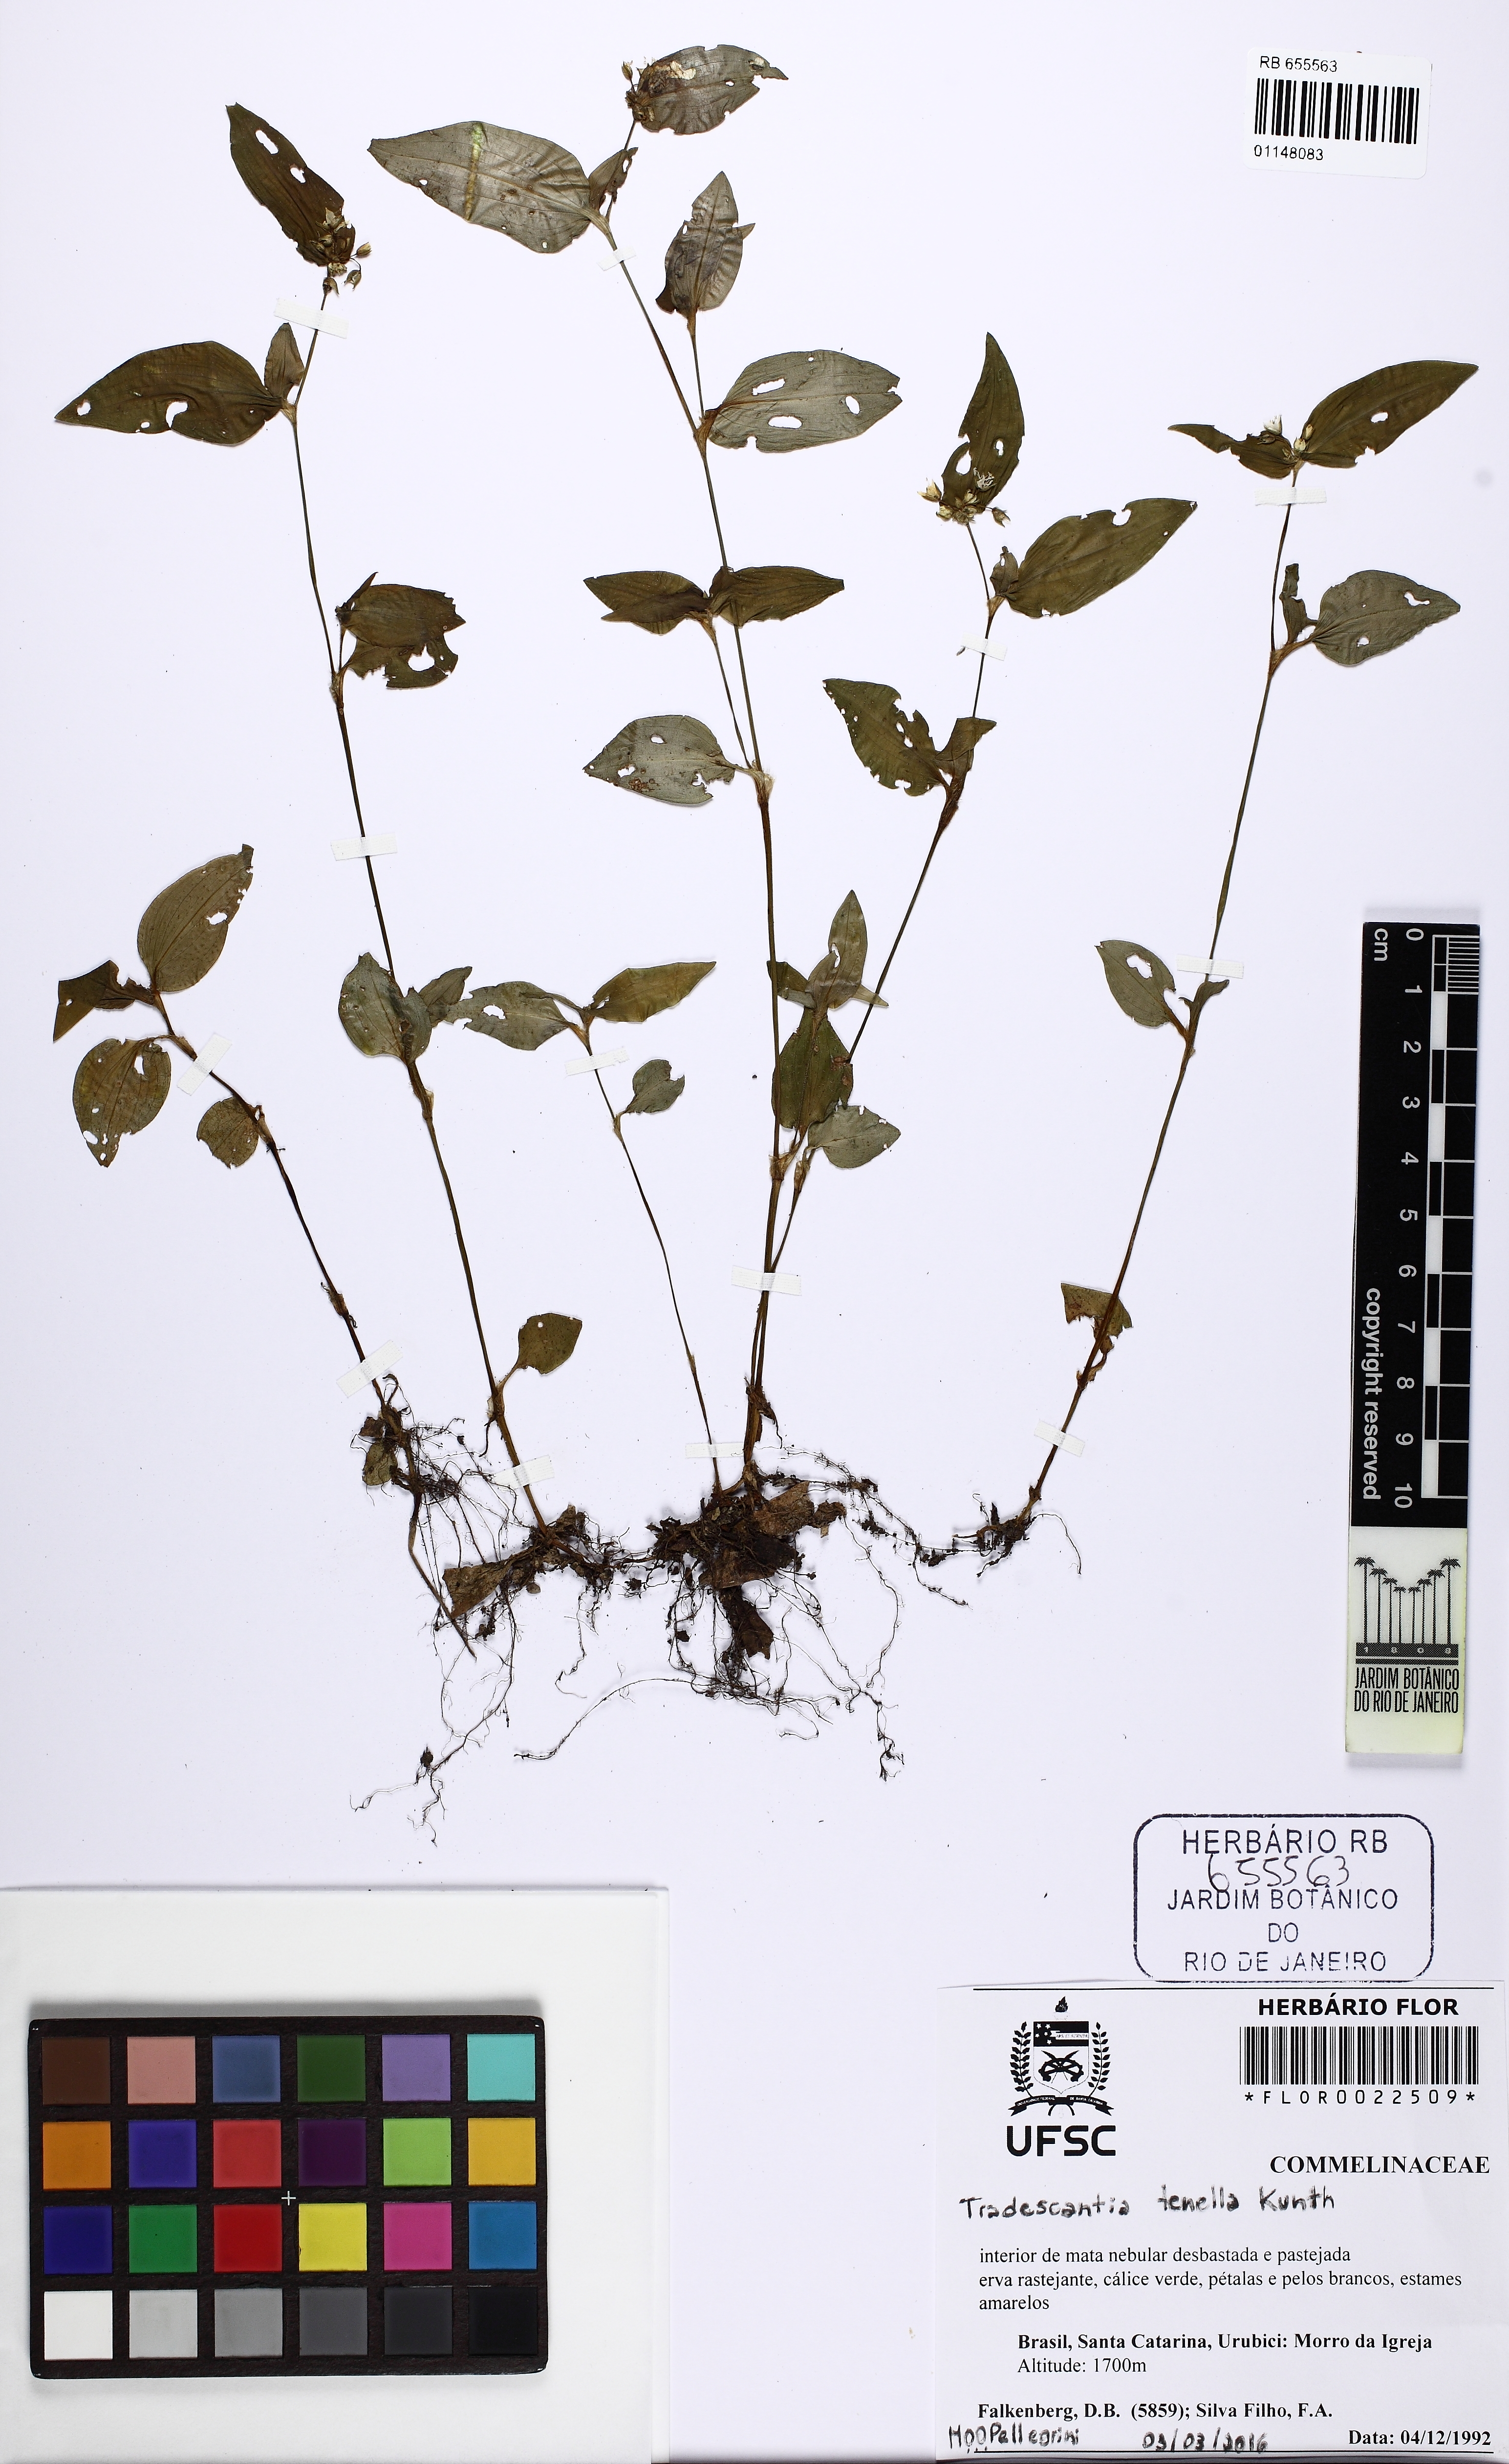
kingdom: Plantae
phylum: Tracheophyta
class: Liliopsida
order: Commelinales
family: Commelinaceae
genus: Tradescantia
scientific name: Tradescantia tenella
